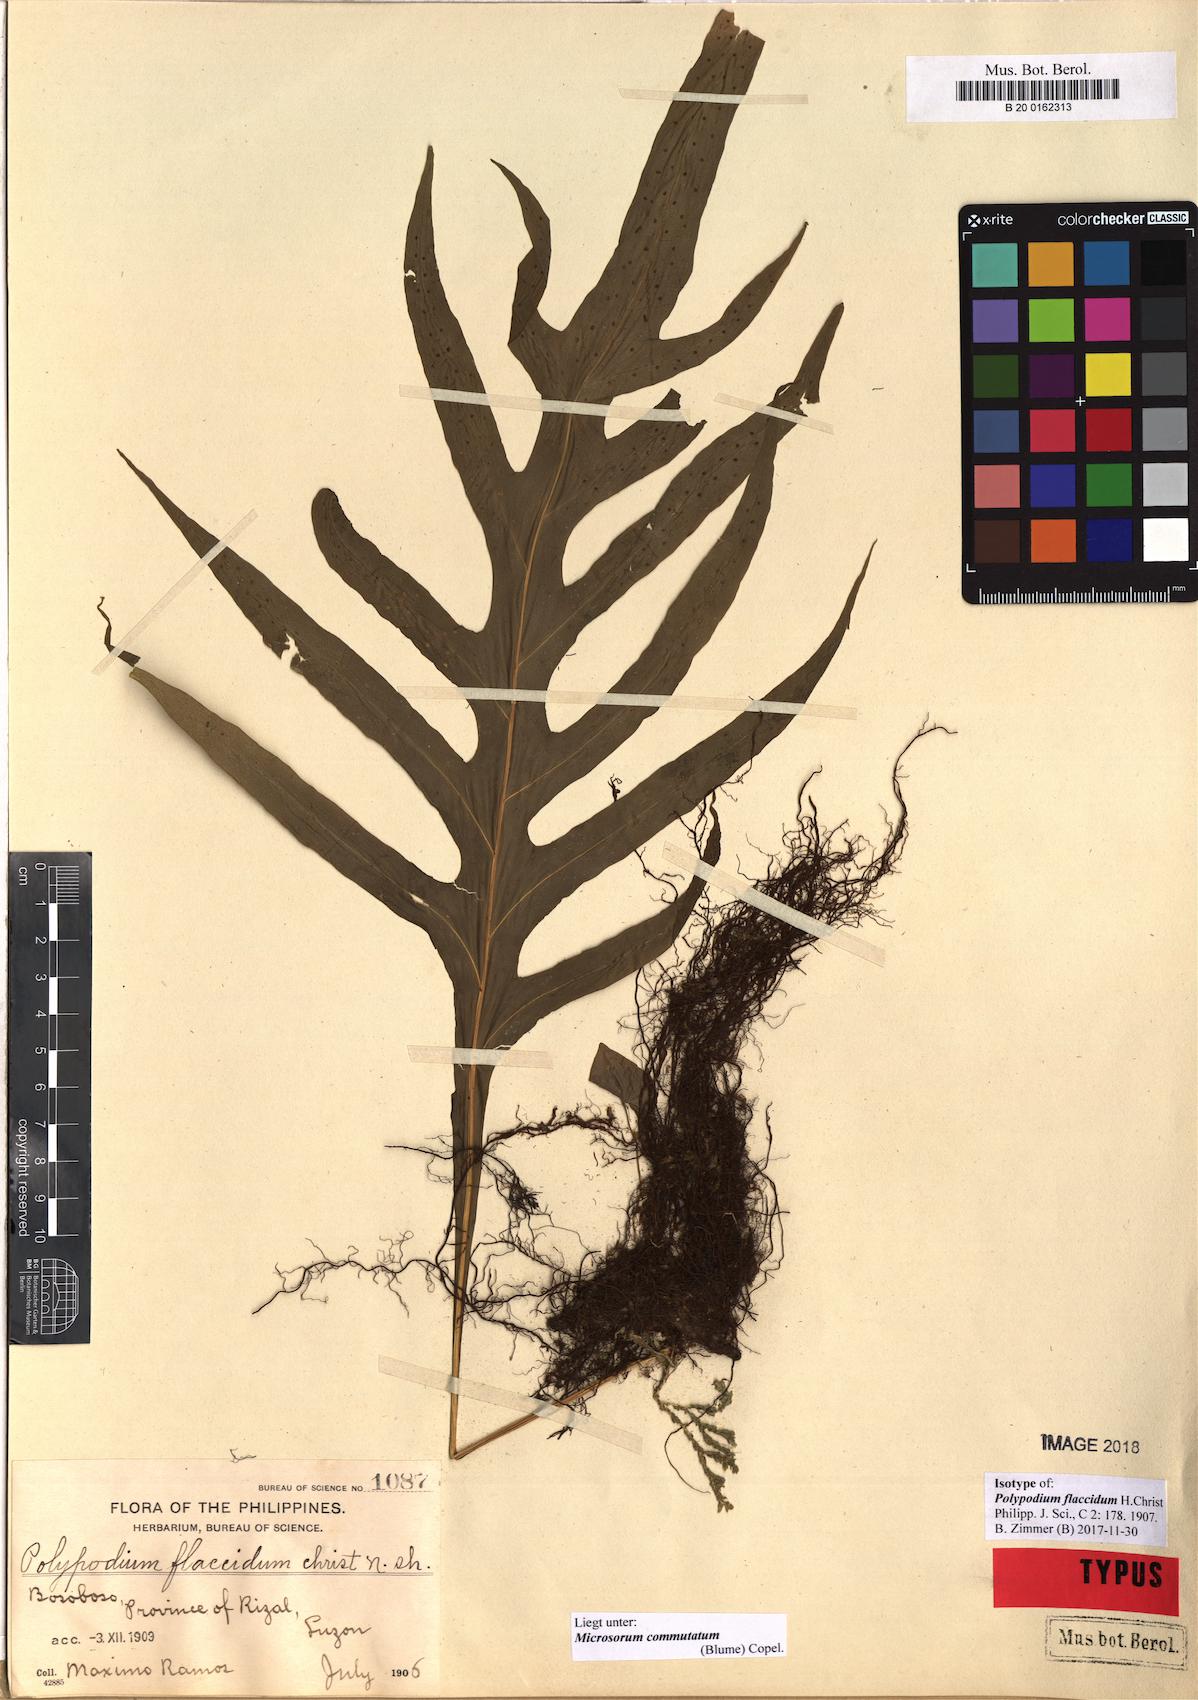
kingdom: Plantae
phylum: Tracheophyta
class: Polypodiopsida
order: Polypodiales
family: Polypodiaceae
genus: Microsorum
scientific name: Microsorum commutatum
